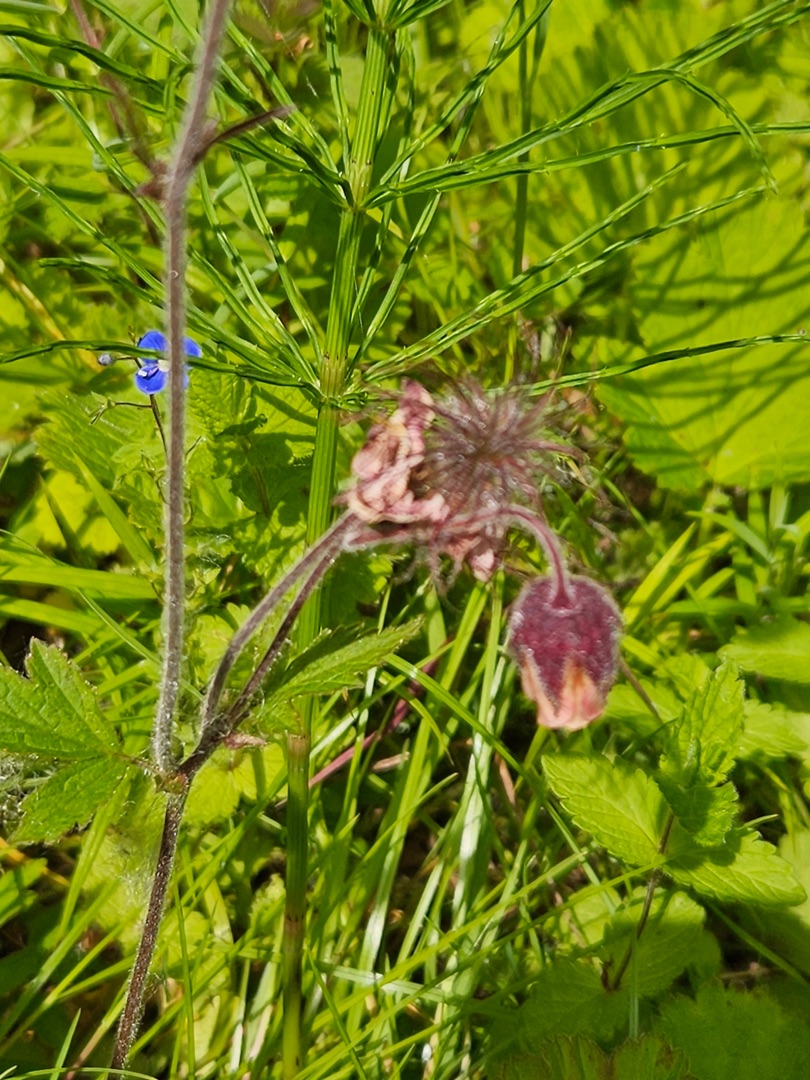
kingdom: Plantae
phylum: Tracheophyta
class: Magnoliopsida
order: Rosales
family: Rosaceae
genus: Geum
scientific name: Geum rivale
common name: Eng-nellikerod
